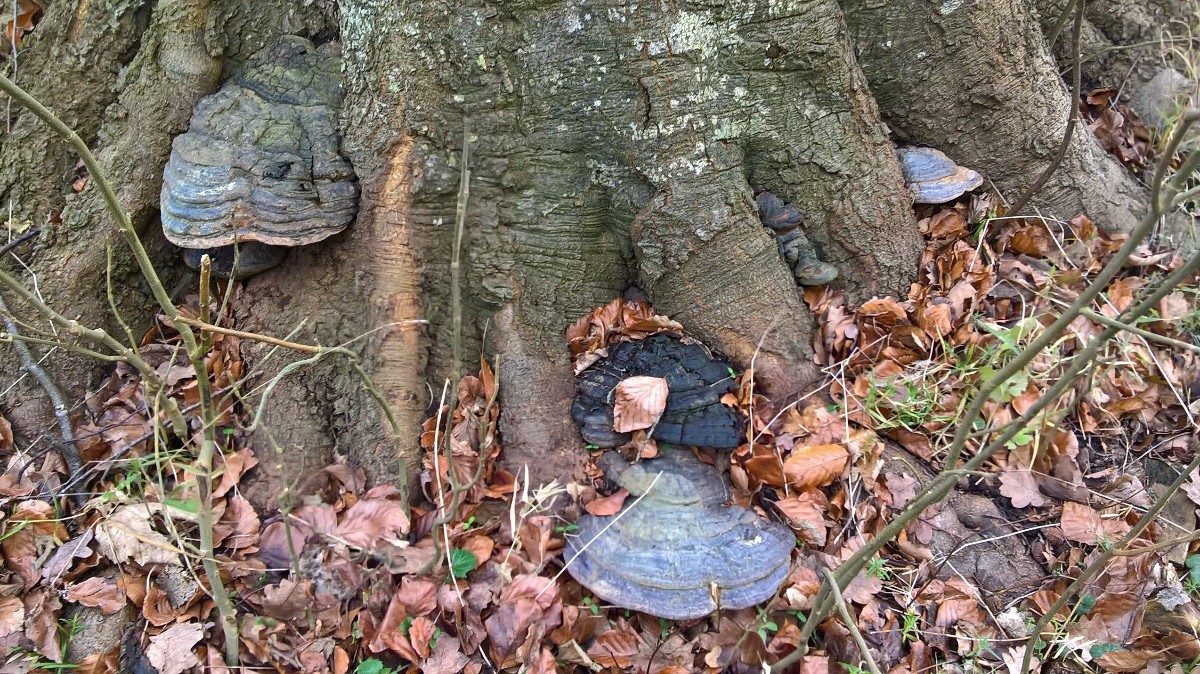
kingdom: Fungi
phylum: Basidiomycota
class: Agaricomycetes
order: Polyporales
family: Polyporaceae
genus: Ganoderma
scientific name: Ganoderma pfeifferi
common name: kobberrød lakporesvamp
